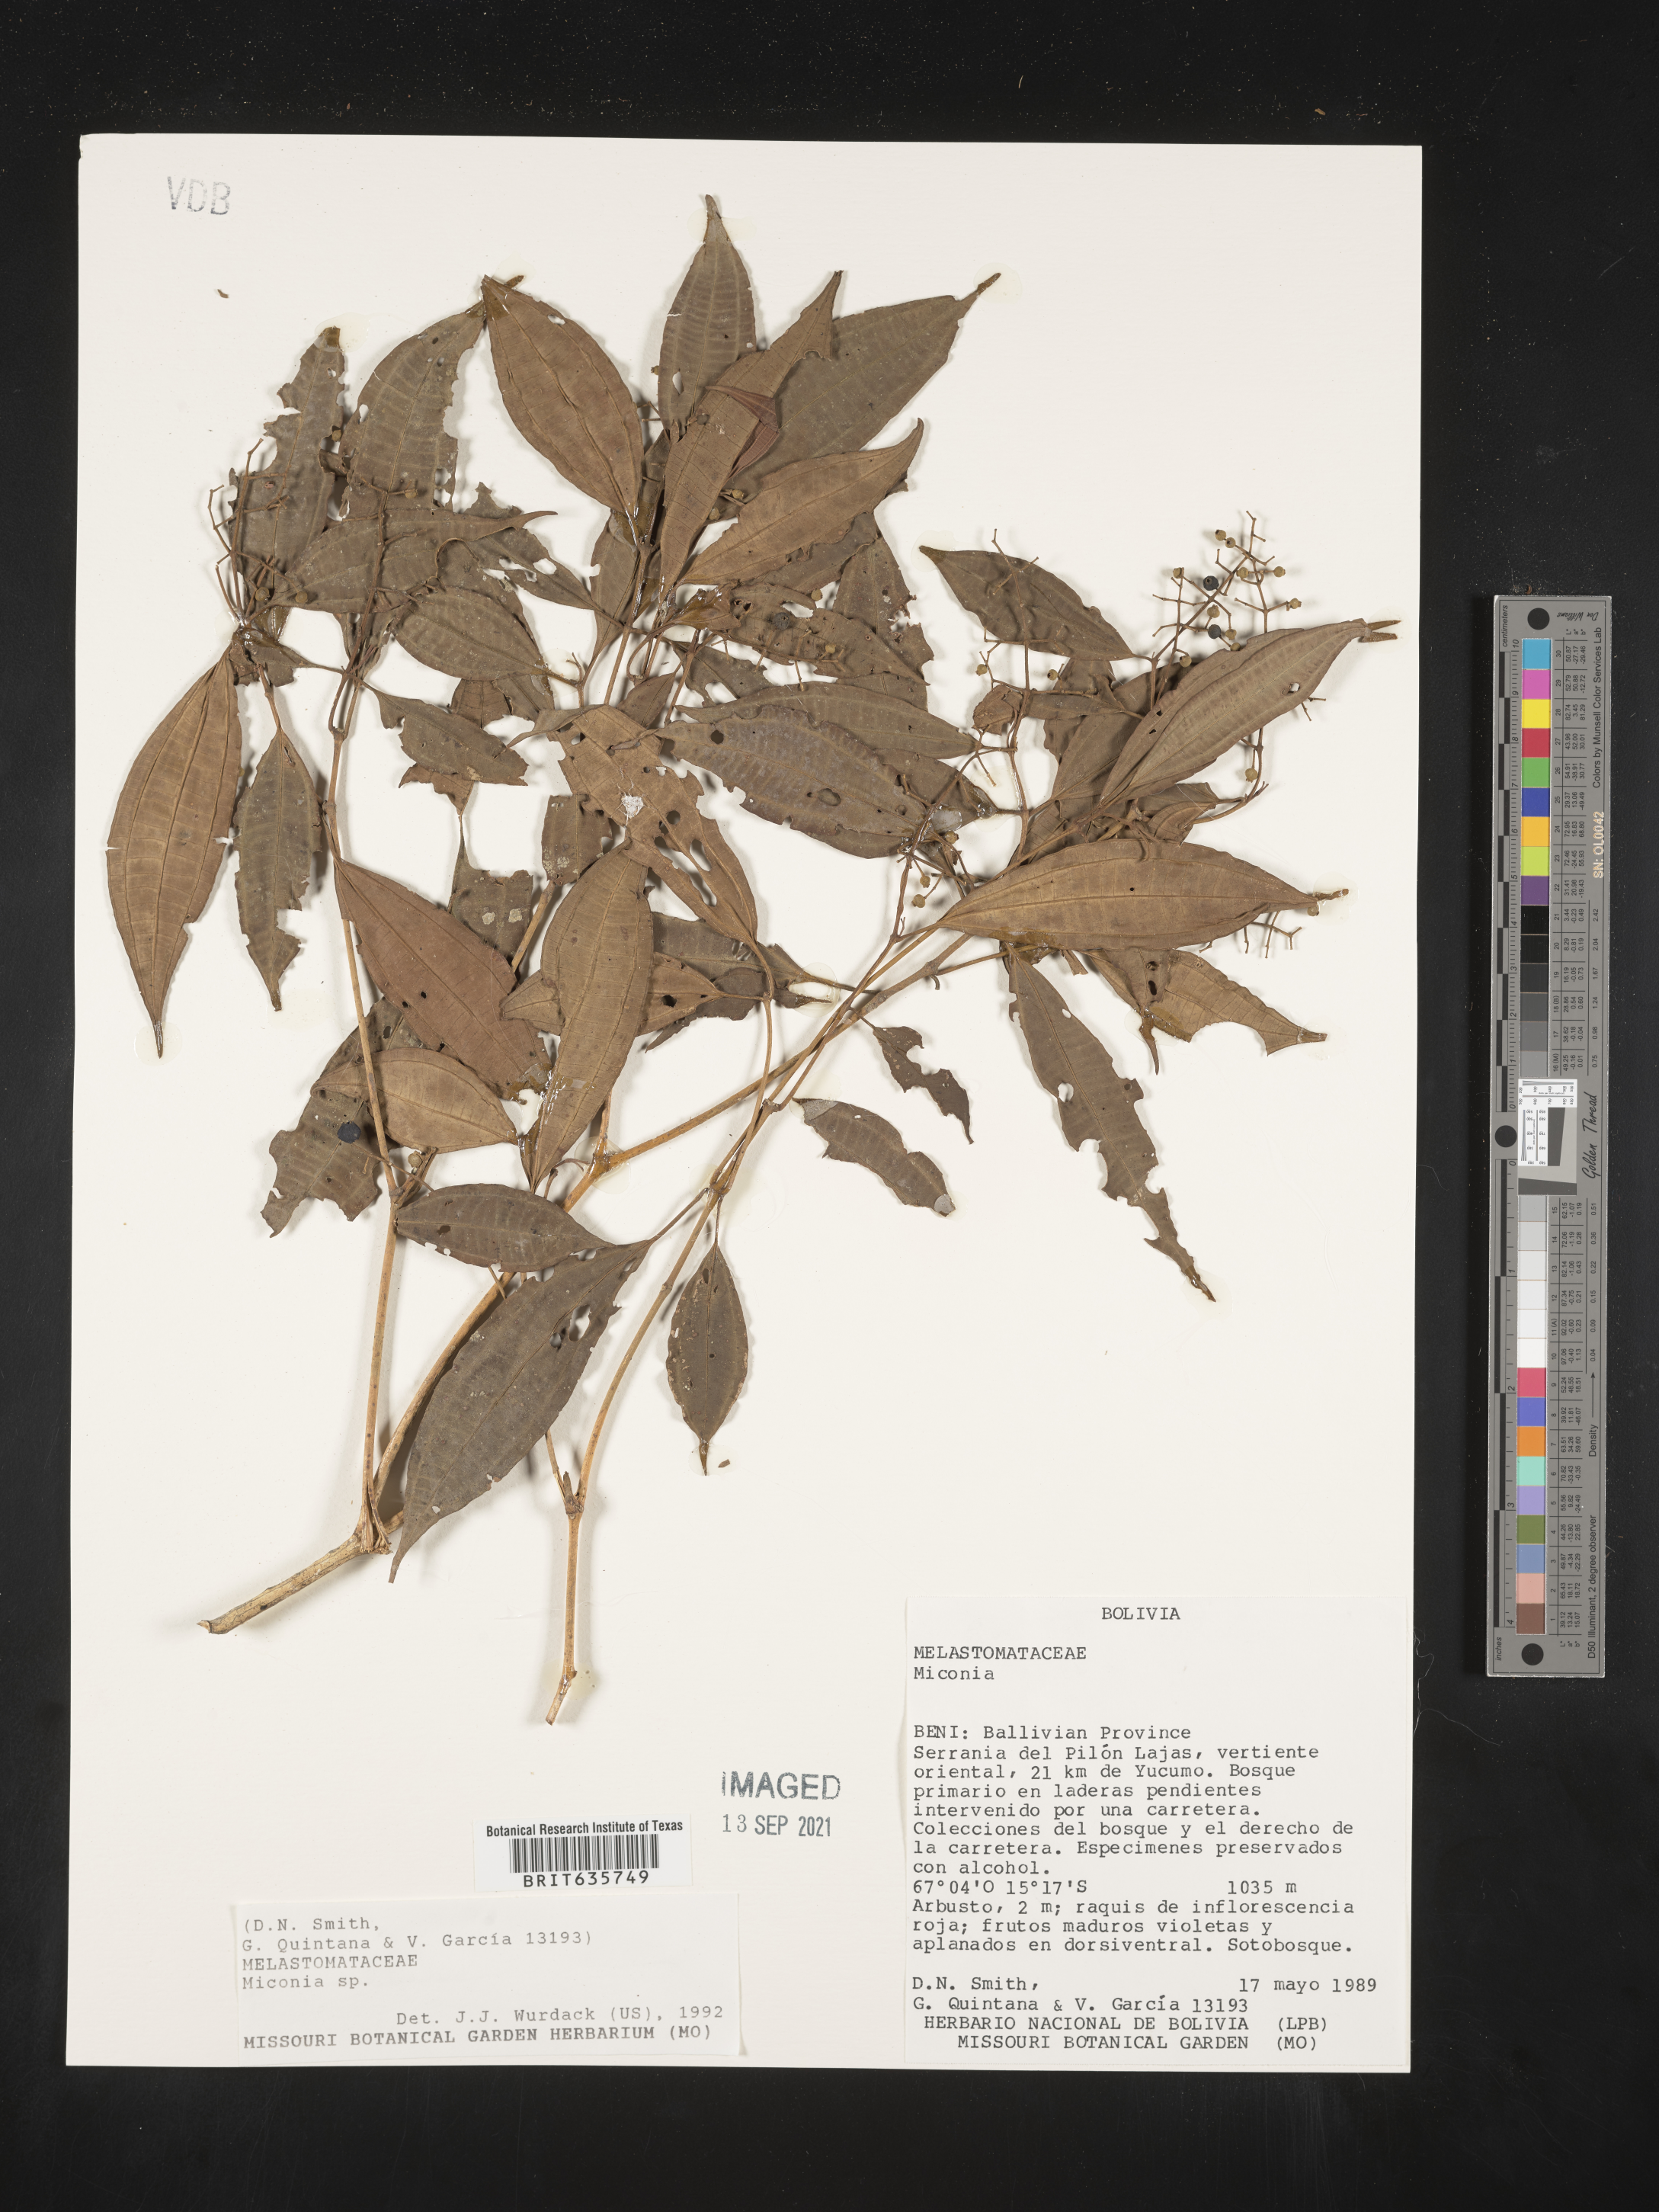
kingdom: Plantae
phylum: Tracheophyta
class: Magnoliopsida
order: Myrtales
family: Melastomataceae
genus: Miconia
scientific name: Miconia
